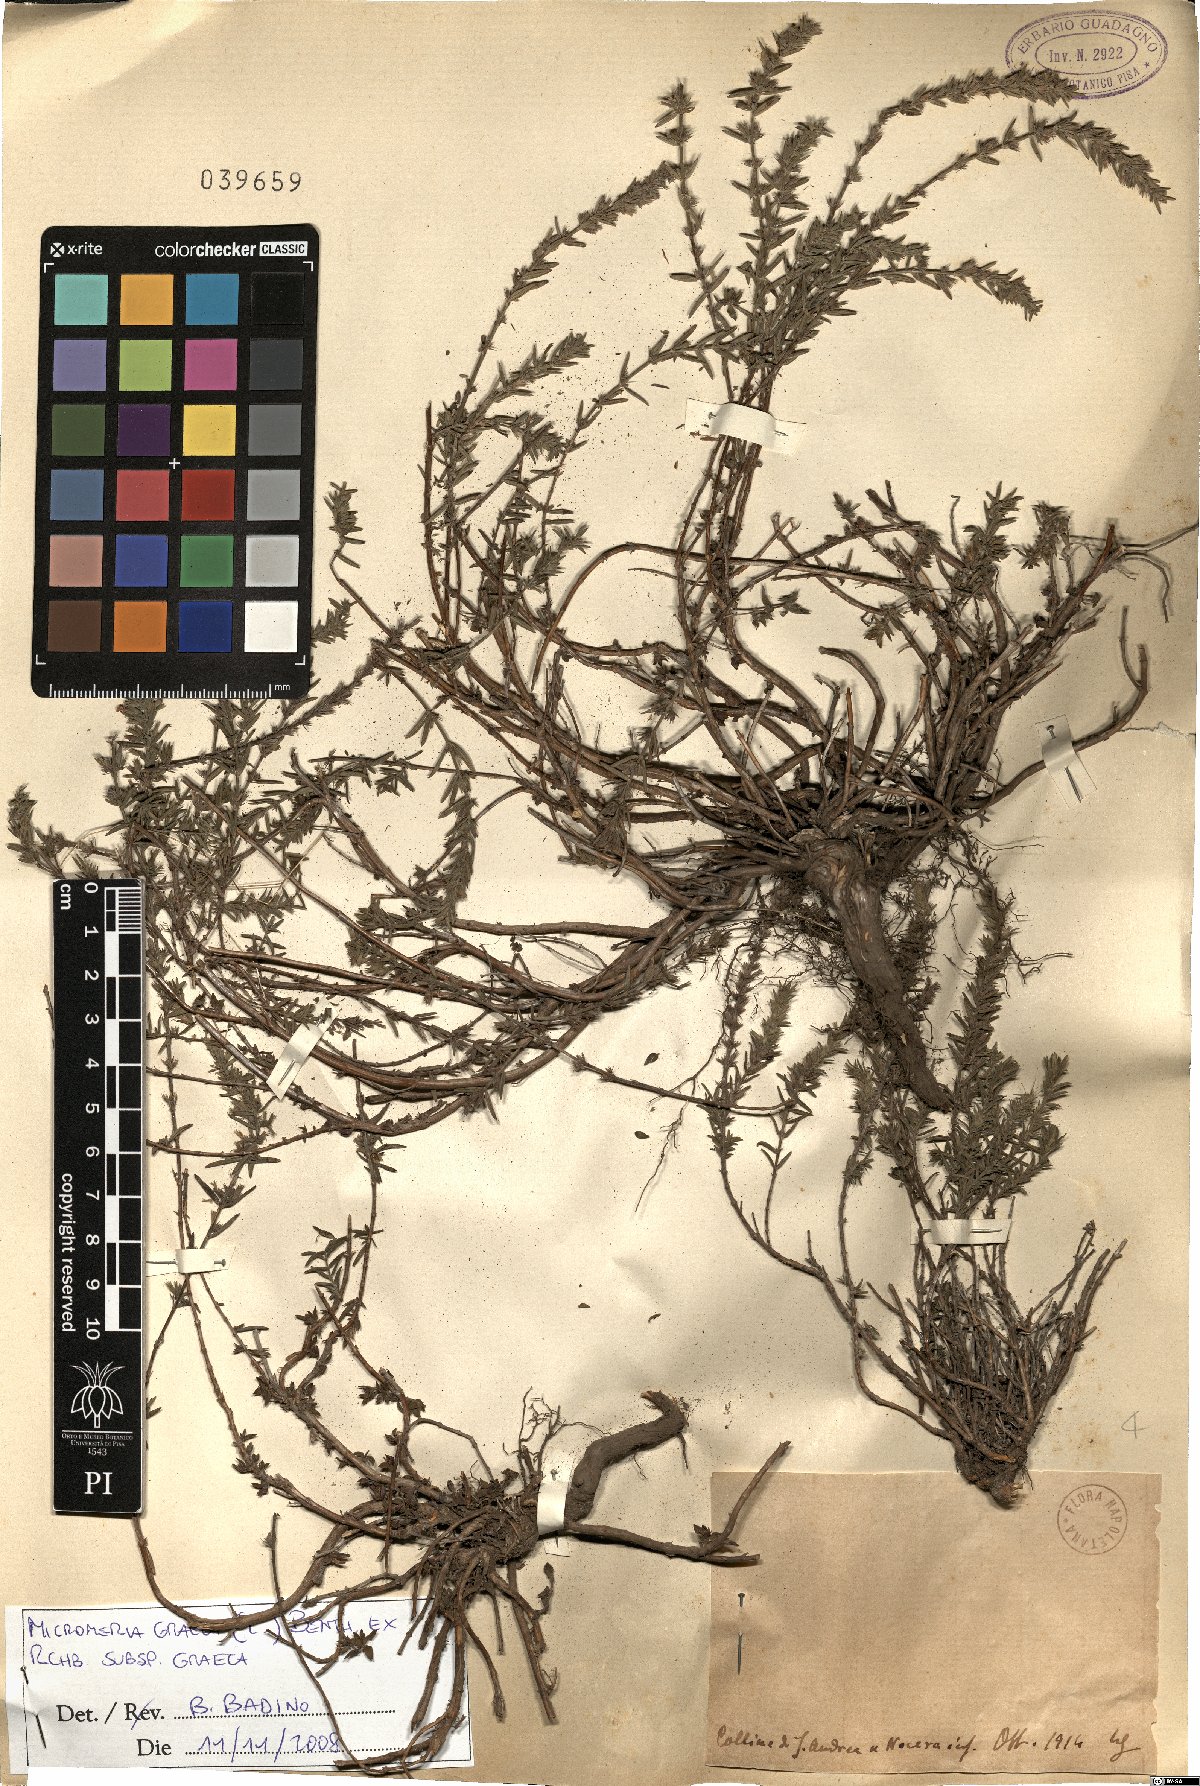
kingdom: Plantae
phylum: Tracheophyta
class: Magnoliopsida
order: Lamiales
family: Lamiaceae
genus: Micromeria
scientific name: Micromeria graeca
